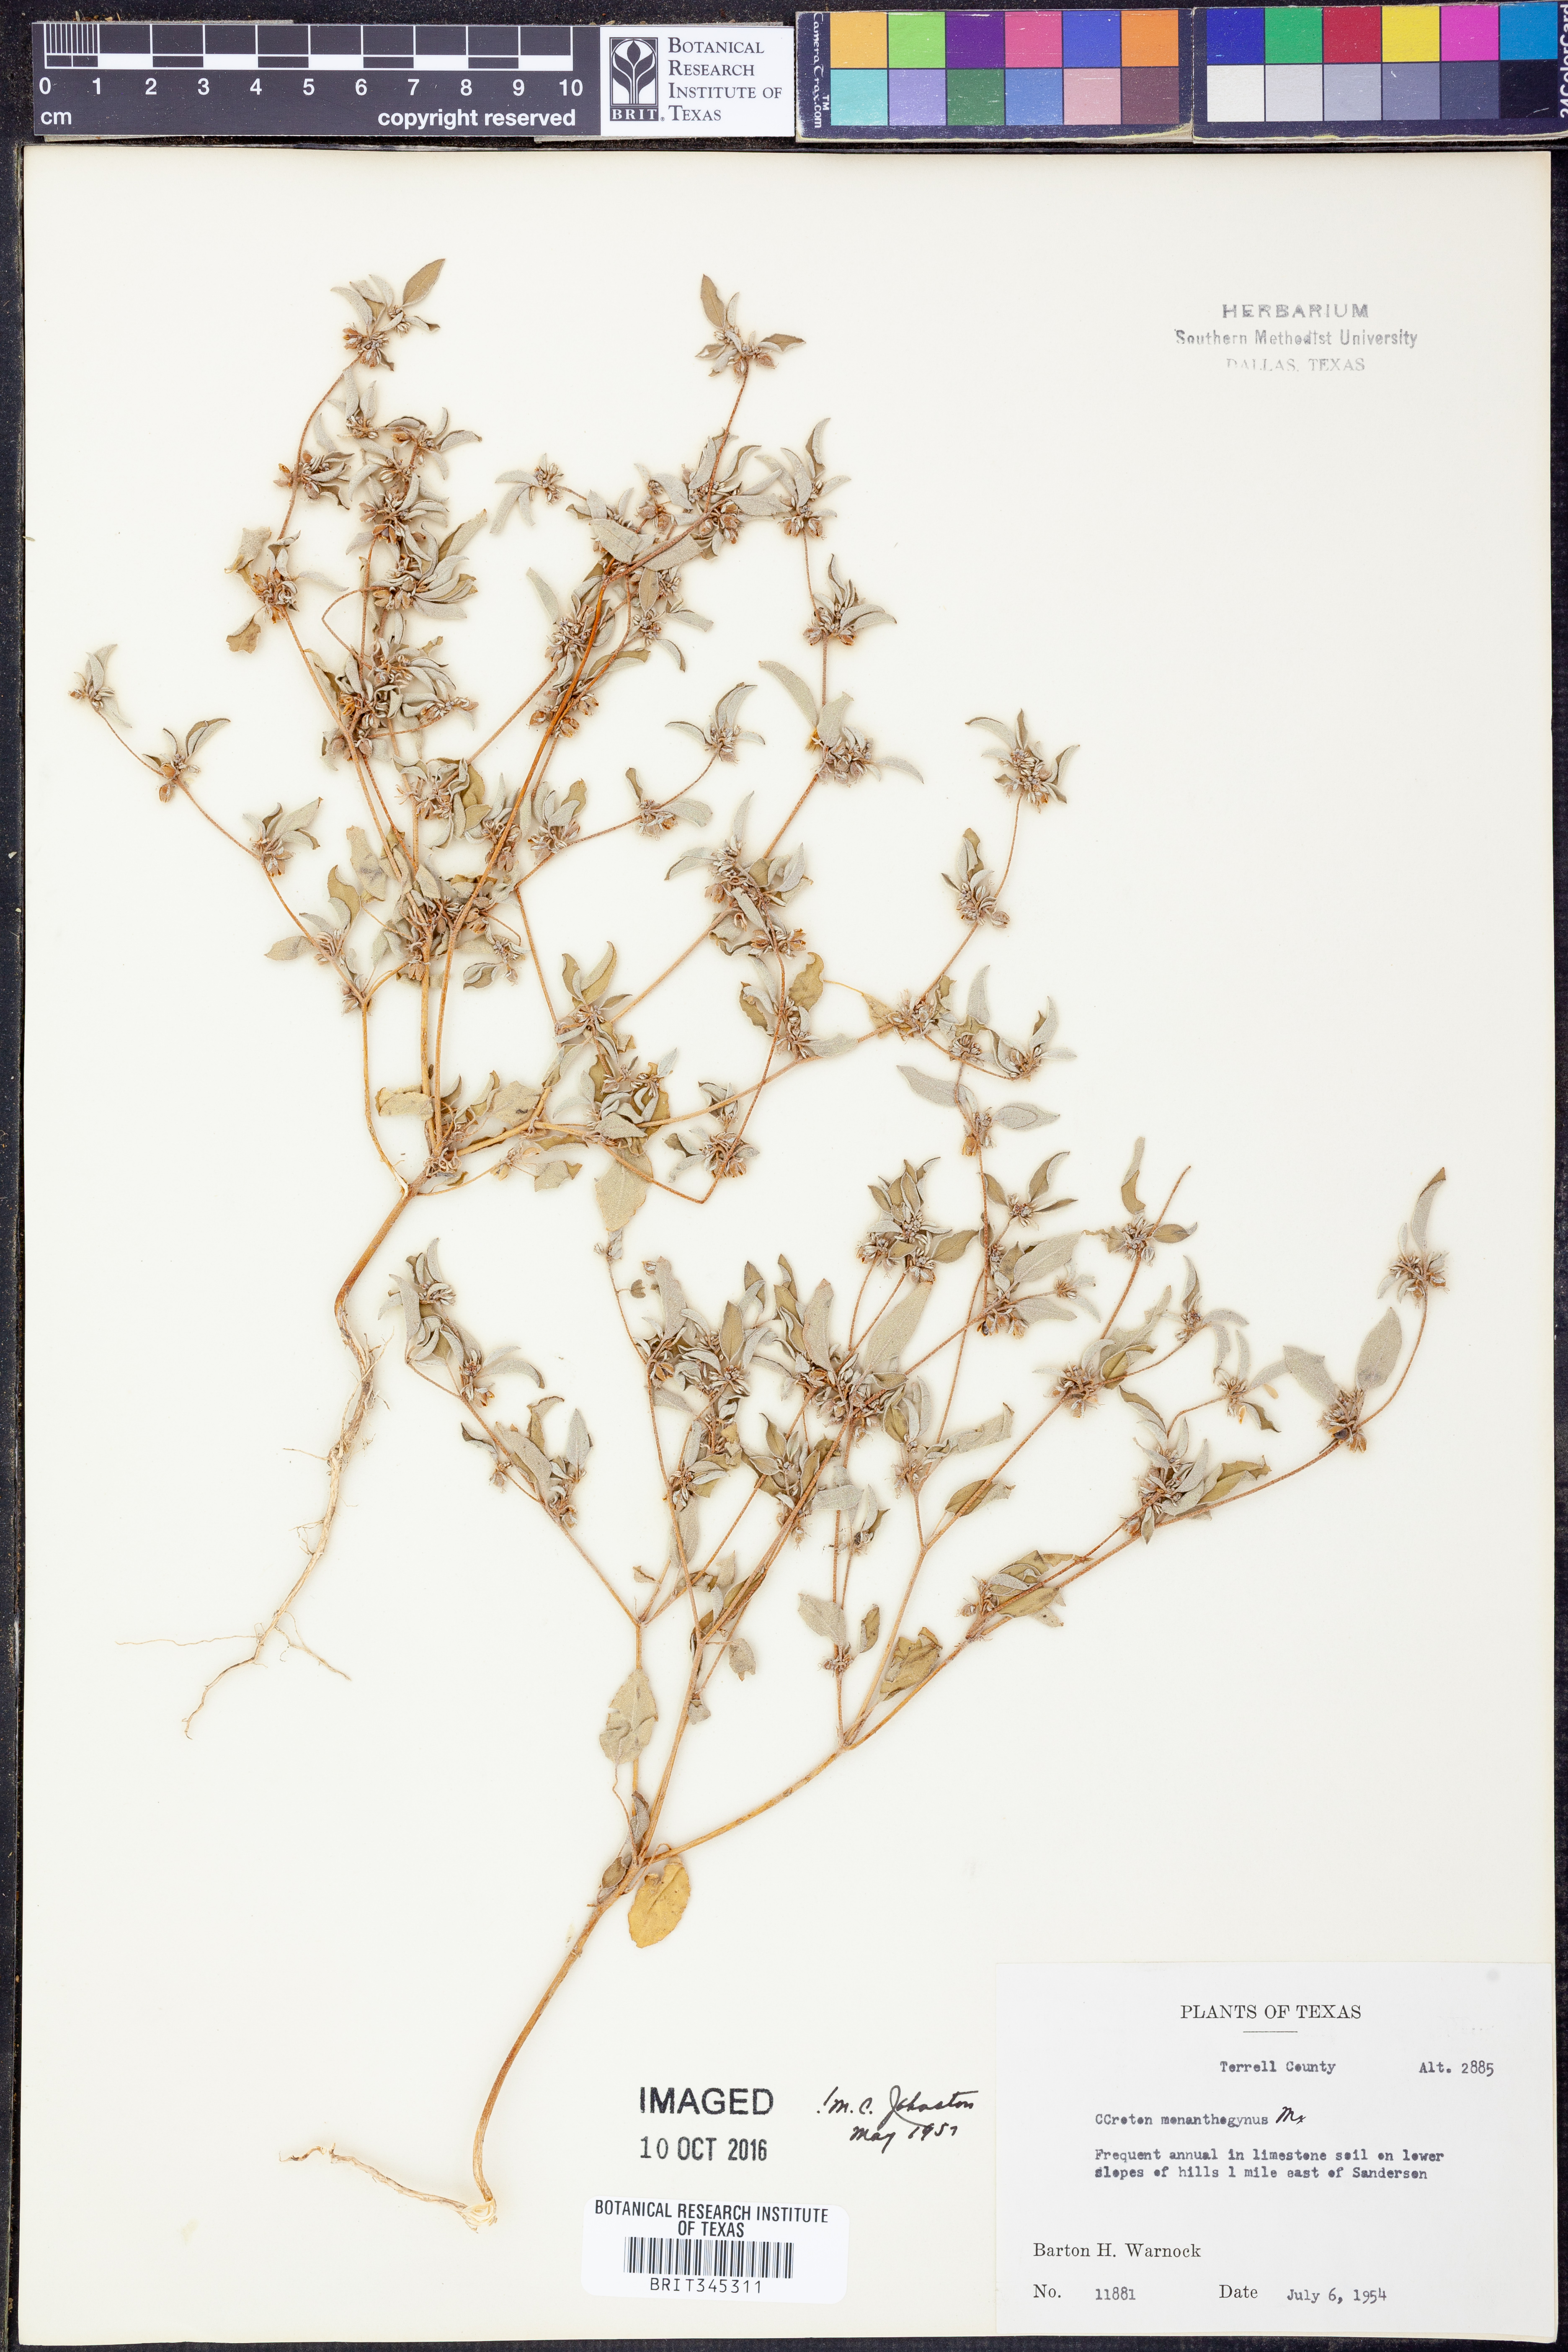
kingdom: Plantae
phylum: Tracheophyta
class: Magnoliopsida
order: Malpighiales
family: Euphorbiaceae
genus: Croton
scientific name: Croton monanthogynus
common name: One-seed croton
